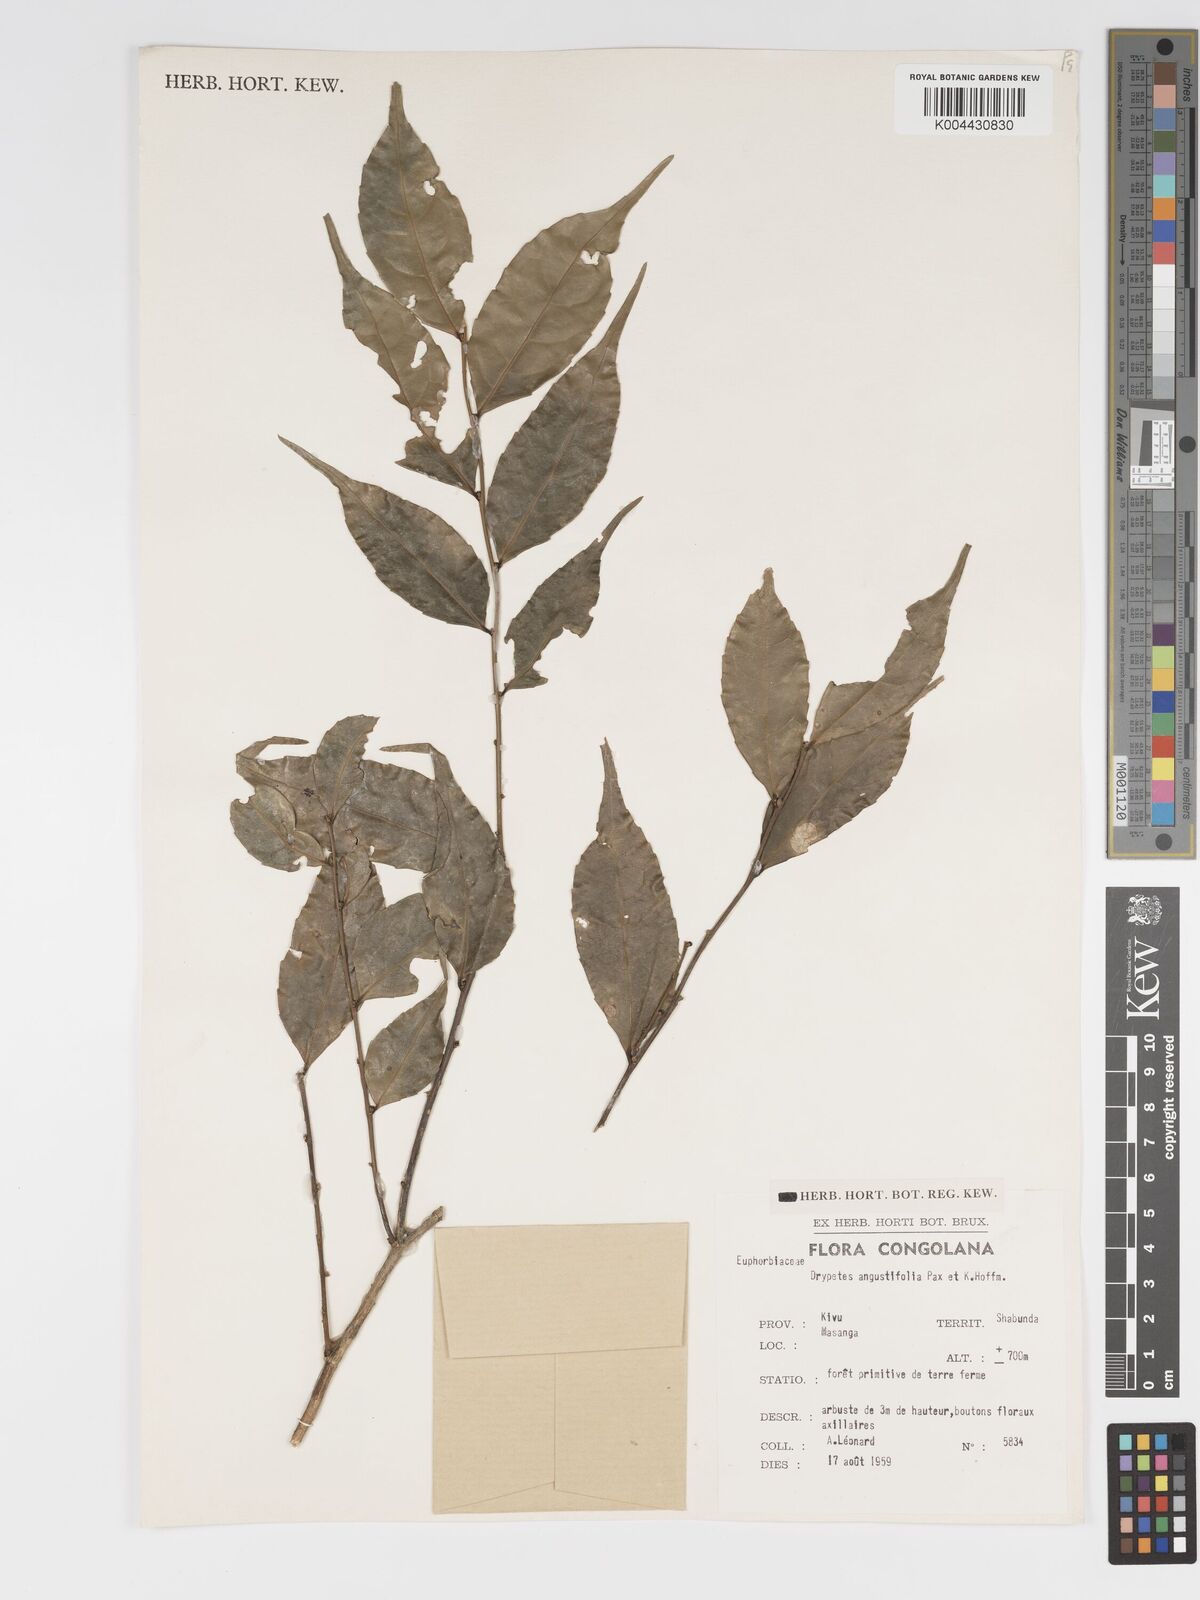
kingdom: Plantae
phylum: Tracheophyta
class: Magnoliopsida
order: Malpighiales
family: Putranjivaceae
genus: Drypetes
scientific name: Drypetes angustifolia
